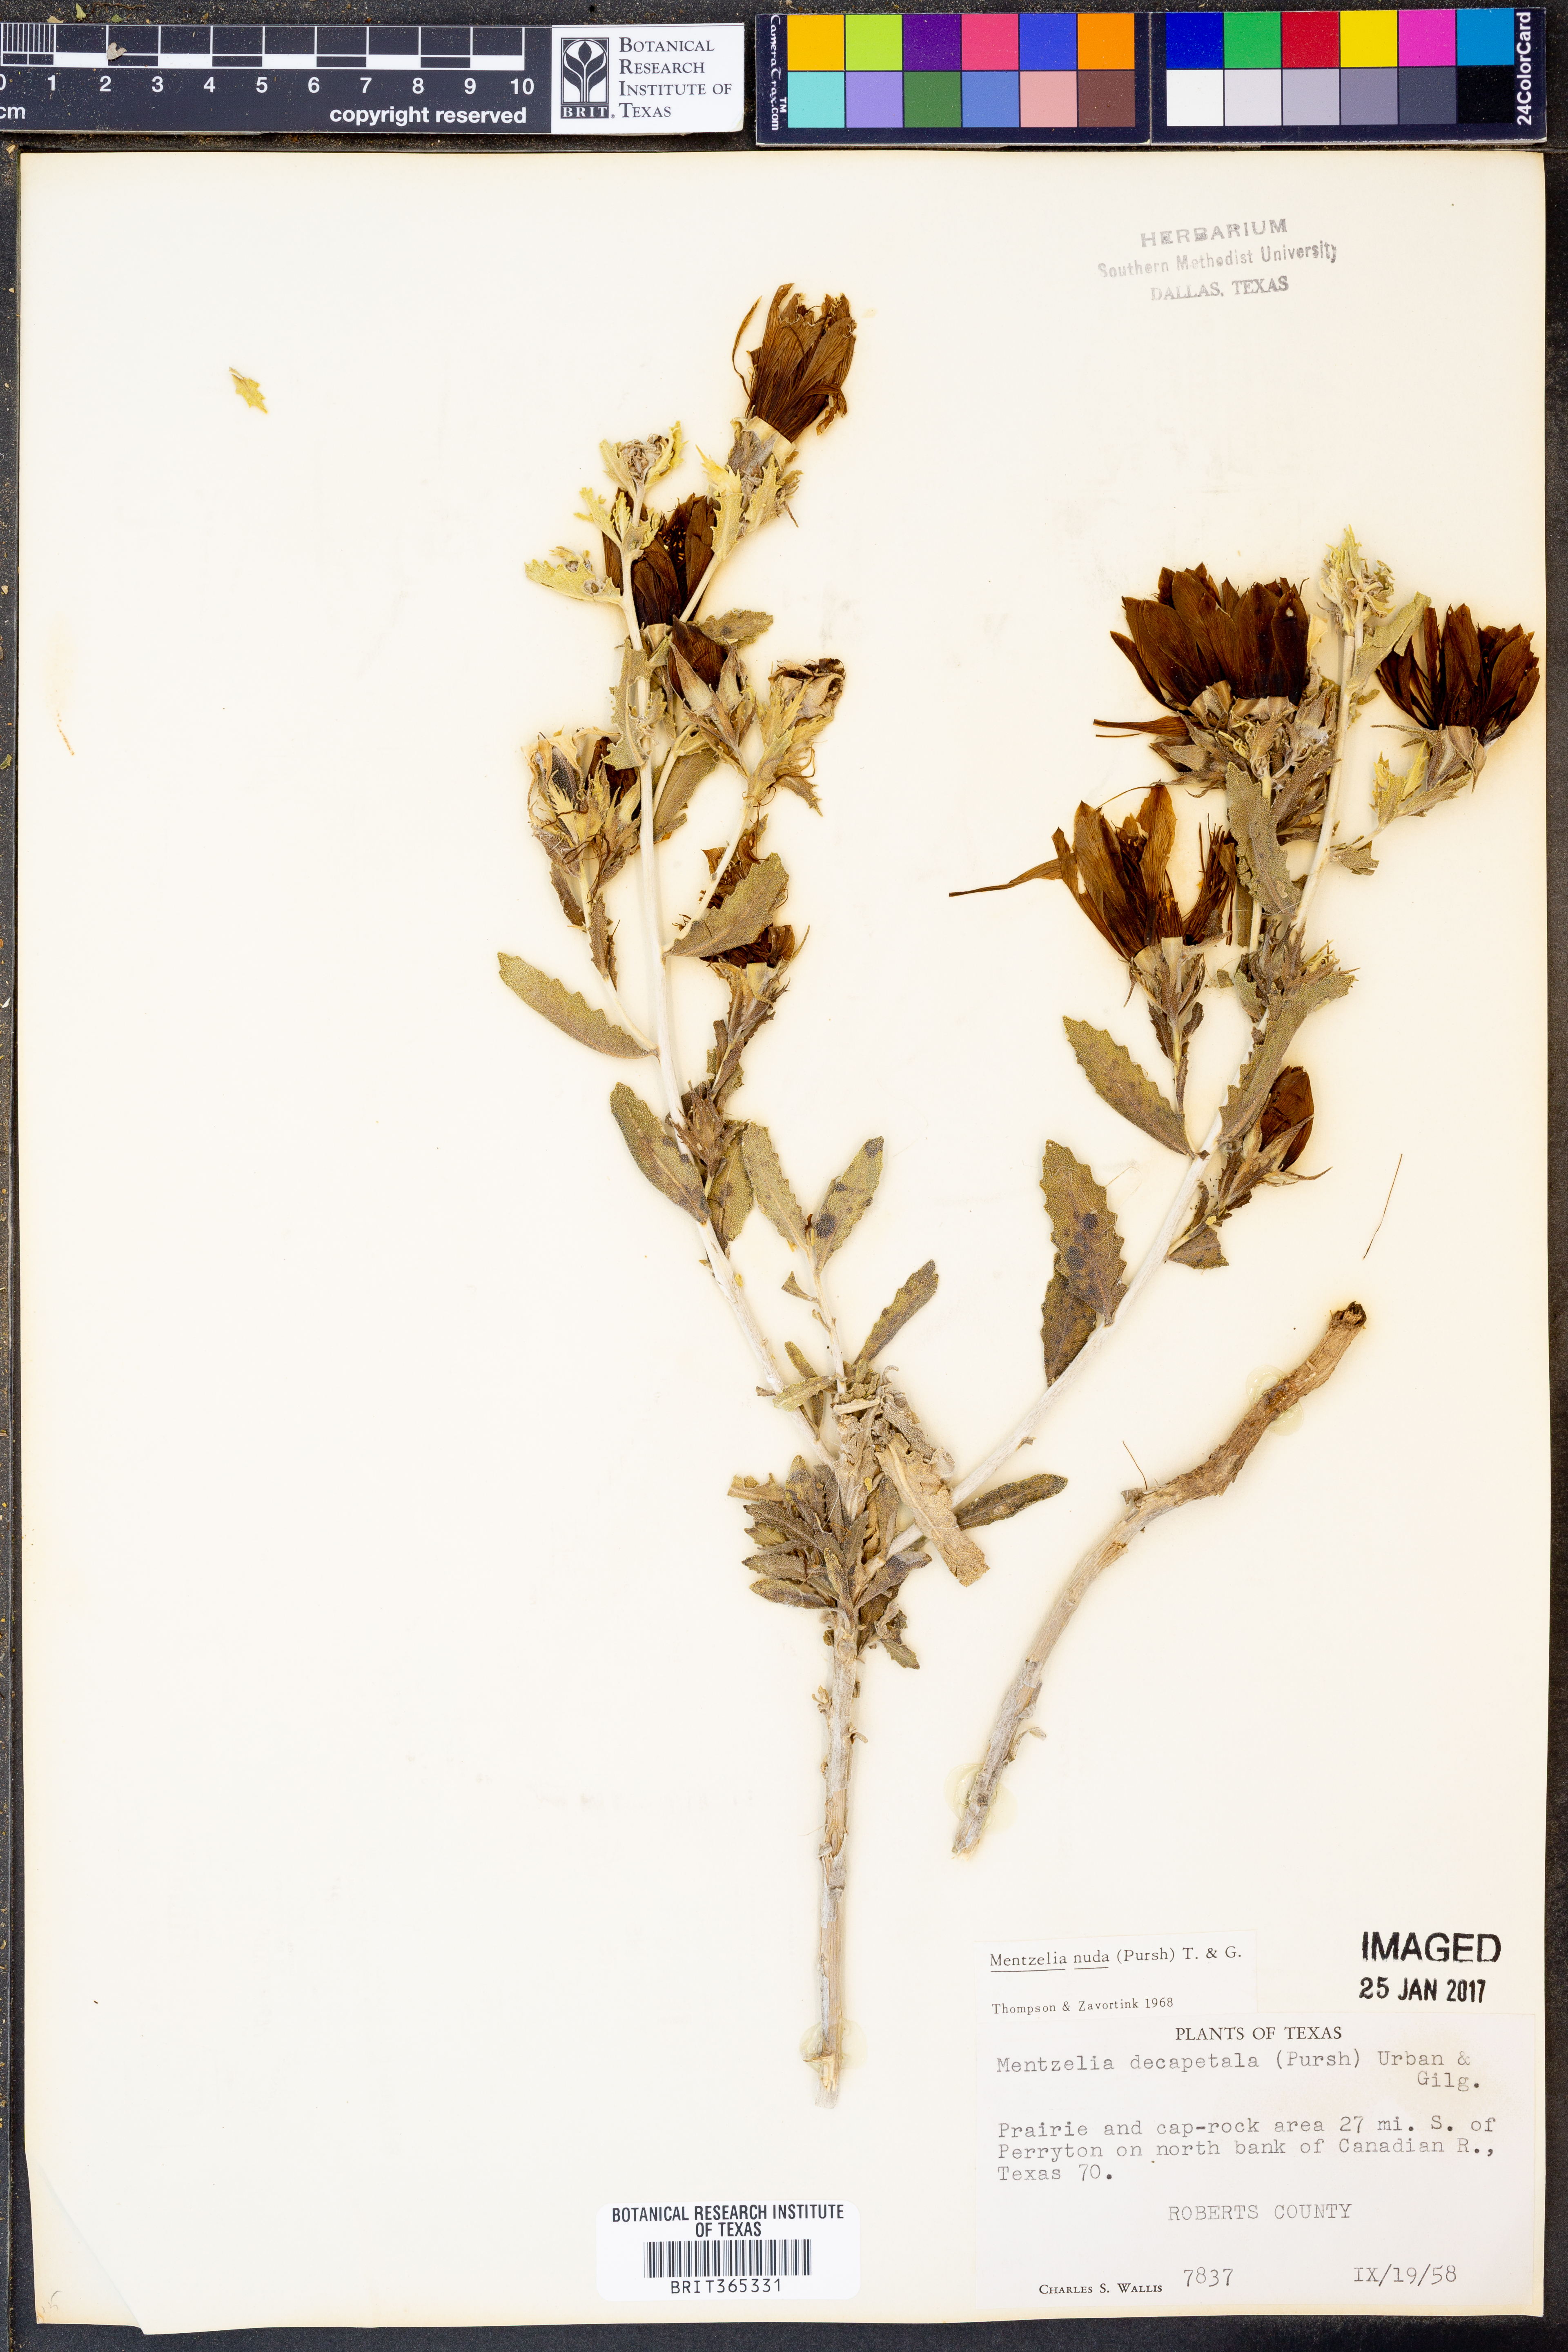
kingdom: Plantae
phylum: Tracheophyta
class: Magnoliopsida
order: Cornales
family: Loasaceae
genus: Mentzelia
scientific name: Mentzelia nuda
